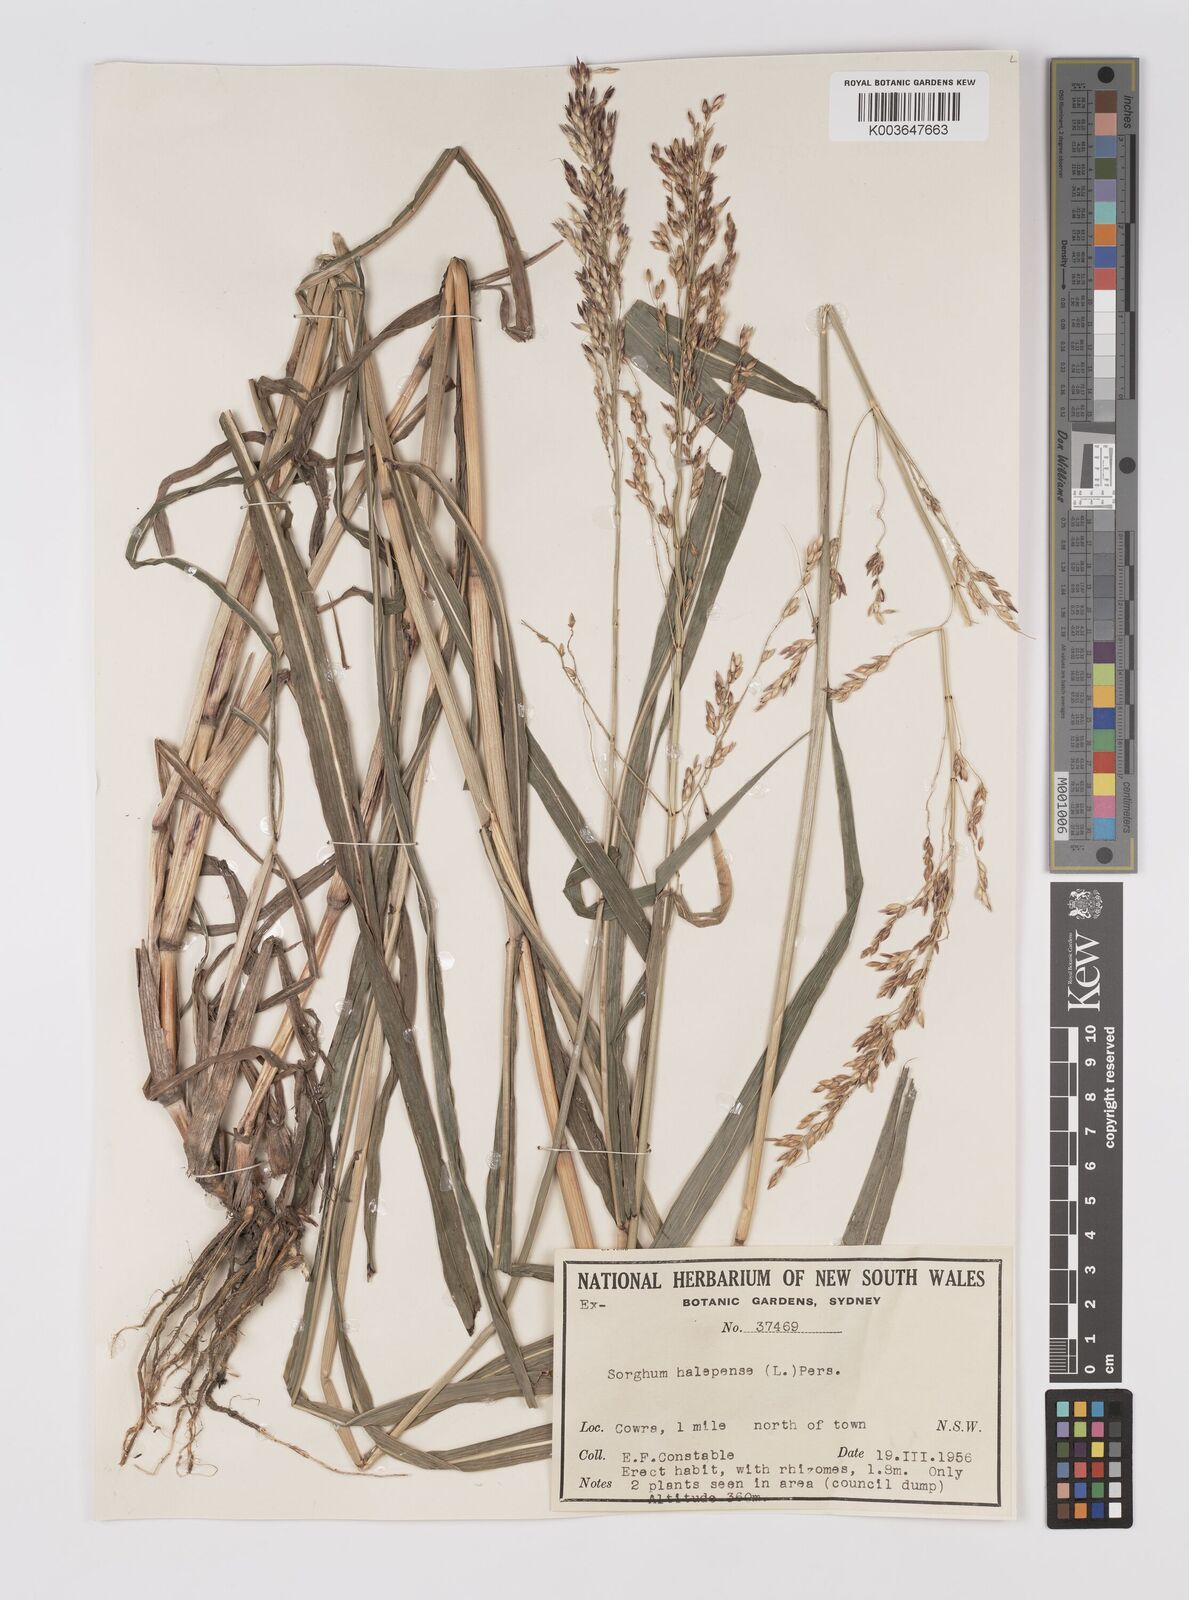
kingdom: Plantae
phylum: Tracheophyta
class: Liliopsida
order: Poales
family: Poaceae
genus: Sorghum
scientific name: Sorghum halepense
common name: Johnson-grass
